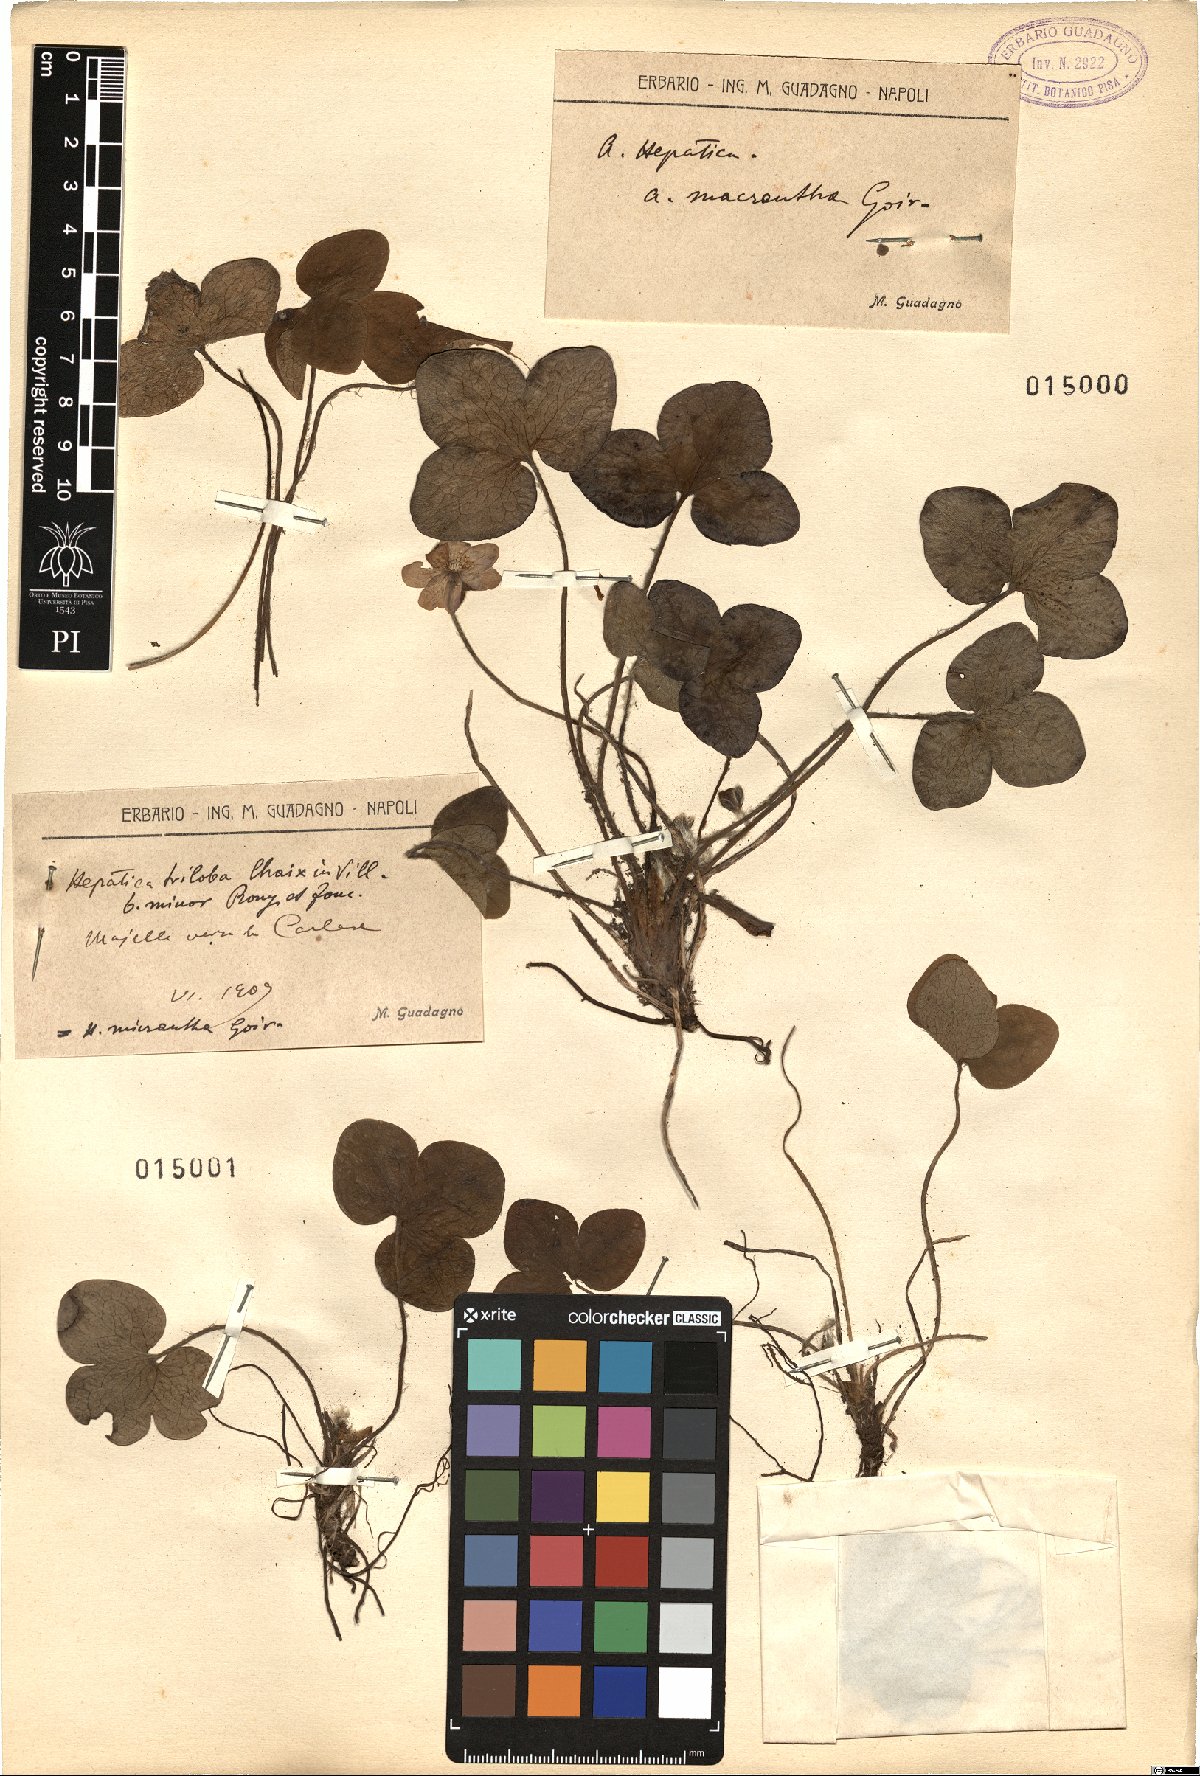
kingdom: Plantae
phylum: Tracheophyta
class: Magnoliopsida
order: Ranunculales
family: Ranunculaceae
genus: Hepatica
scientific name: Hepatica nobilis
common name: Liverleaf
